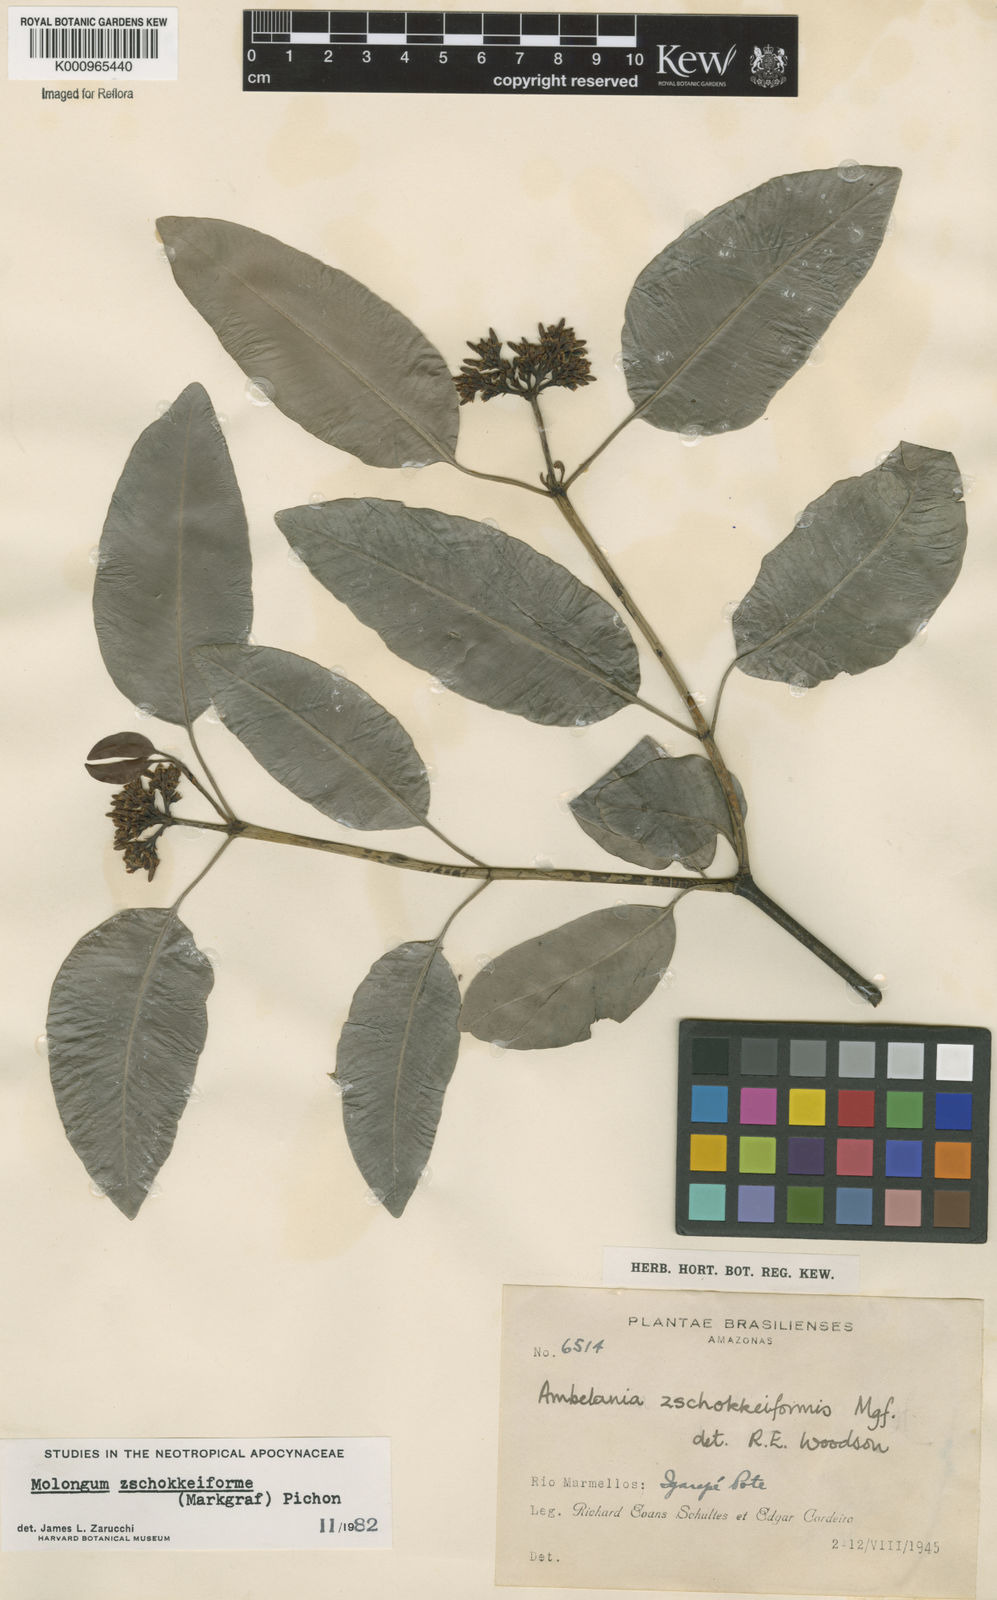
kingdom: Plantae
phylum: Tracheophyta
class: Magnoliopsida
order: Gentianales
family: Apocynaceae
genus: Molongum
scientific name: Molongum zschokkeiforme
